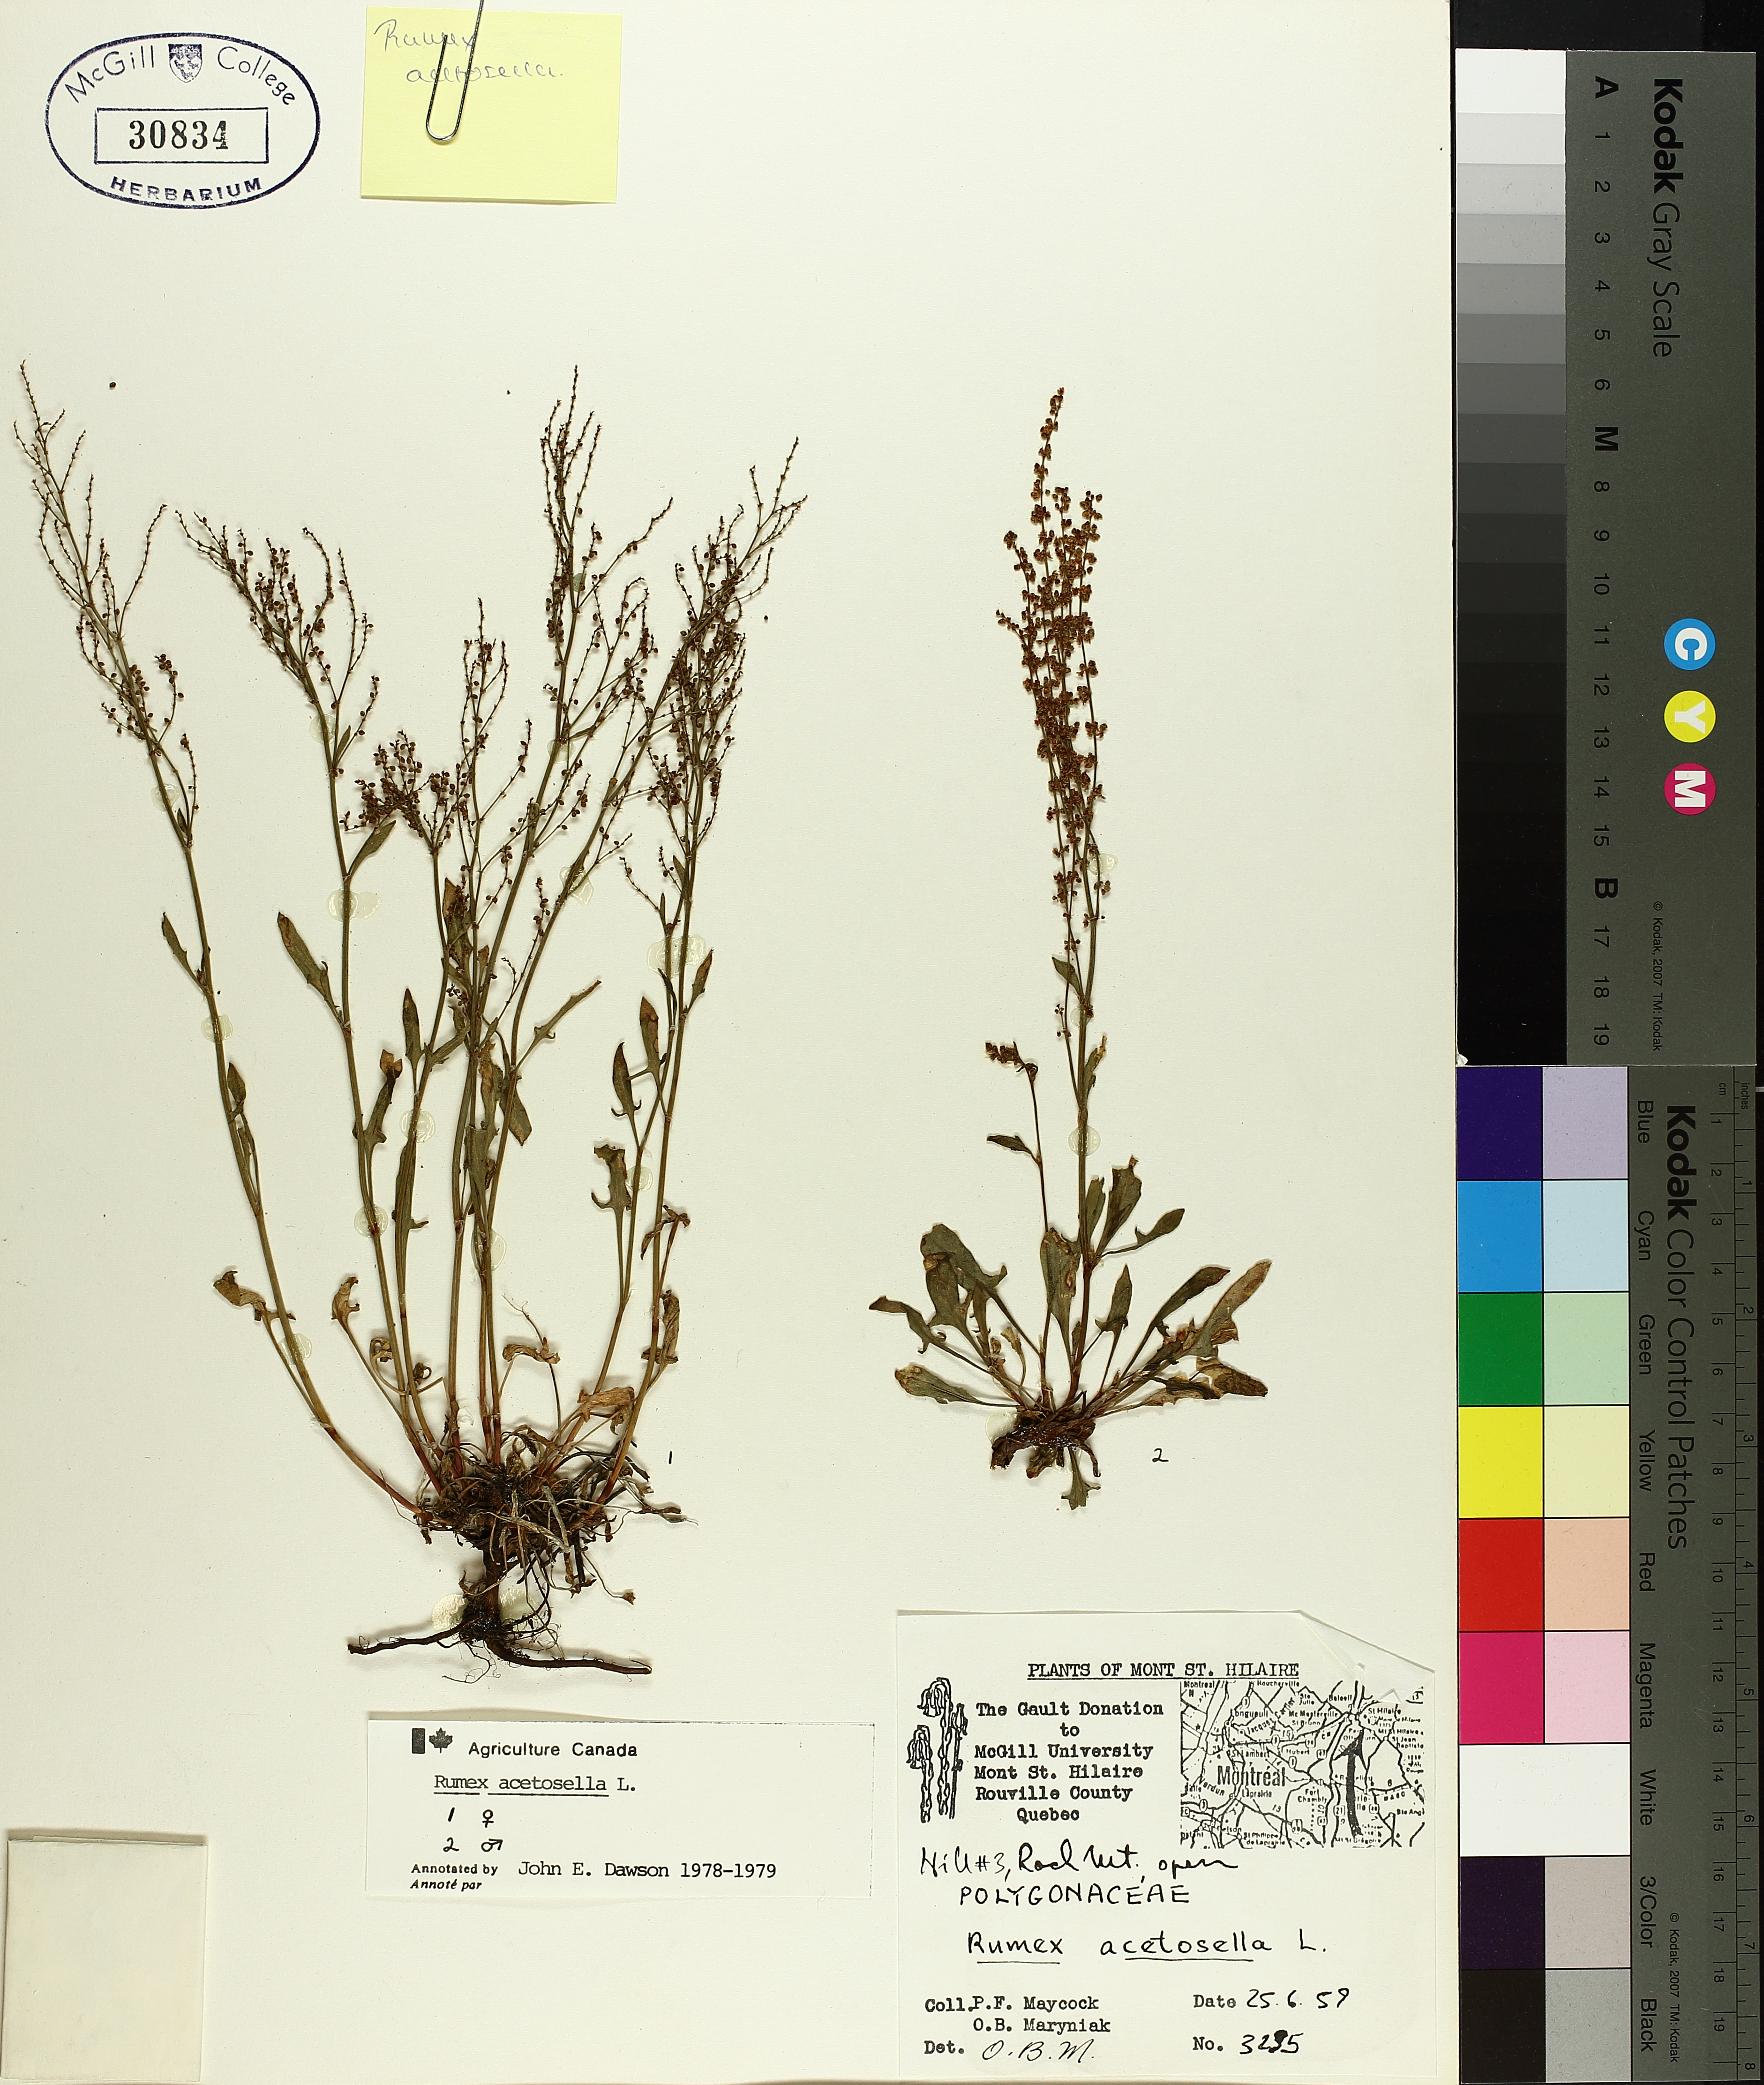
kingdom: Plantae
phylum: Tracheophyta
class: Magnoliopsida
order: Caryophyllales
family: Polygonaceae
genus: Rumex
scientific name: Rumex acetosella
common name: Common sheep sorrel
